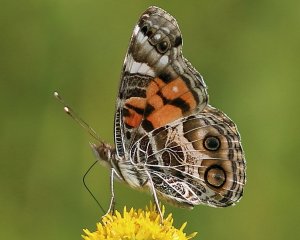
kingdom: Animalia
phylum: Arthropoda
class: Insecta
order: Lepidoptera
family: Nymphalidae
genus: Vanessa
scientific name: Vanessa virginiensis
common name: American Lady
